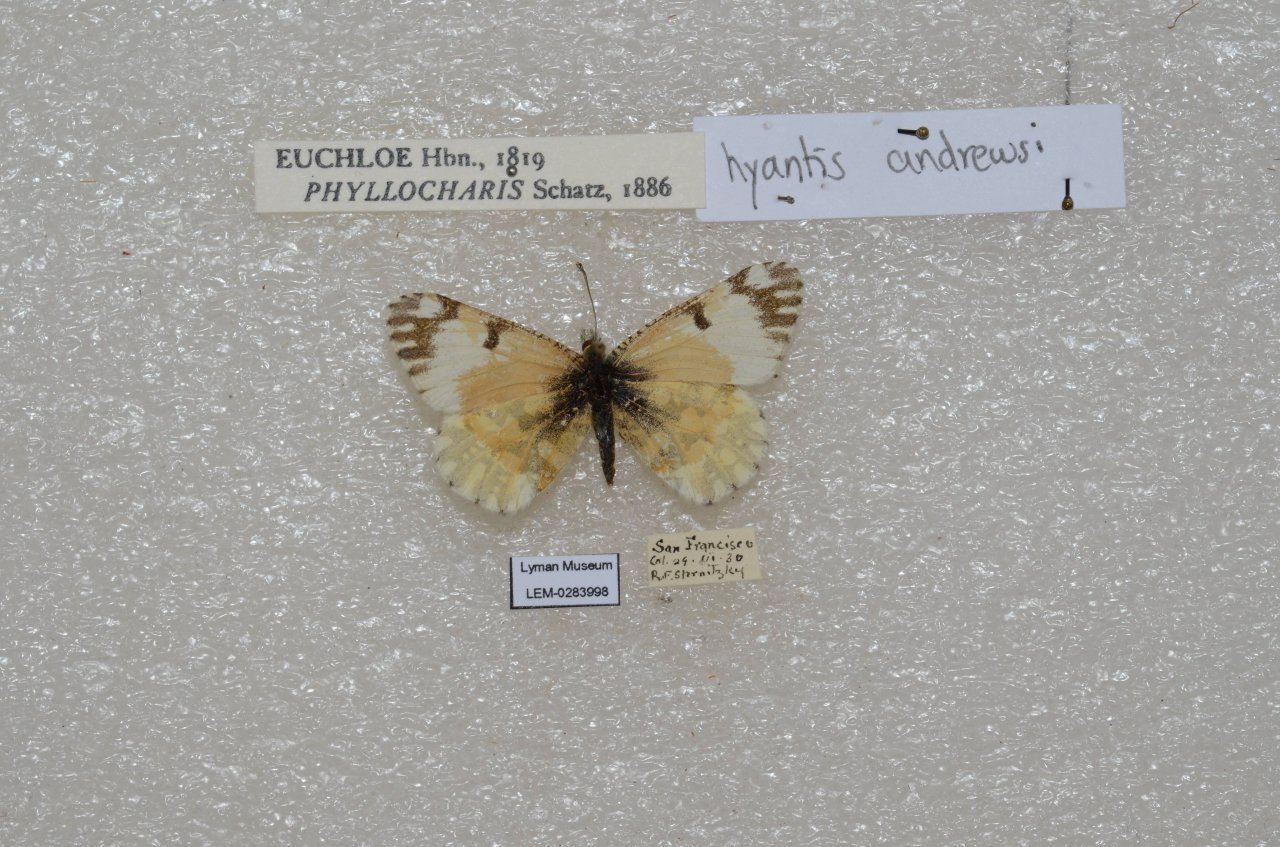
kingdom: Animalia
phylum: Arthropoda
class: Insecta
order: Lepidoptera
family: Pieridae
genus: Euchloe
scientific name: Euchloe hyantis
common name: California Marble
